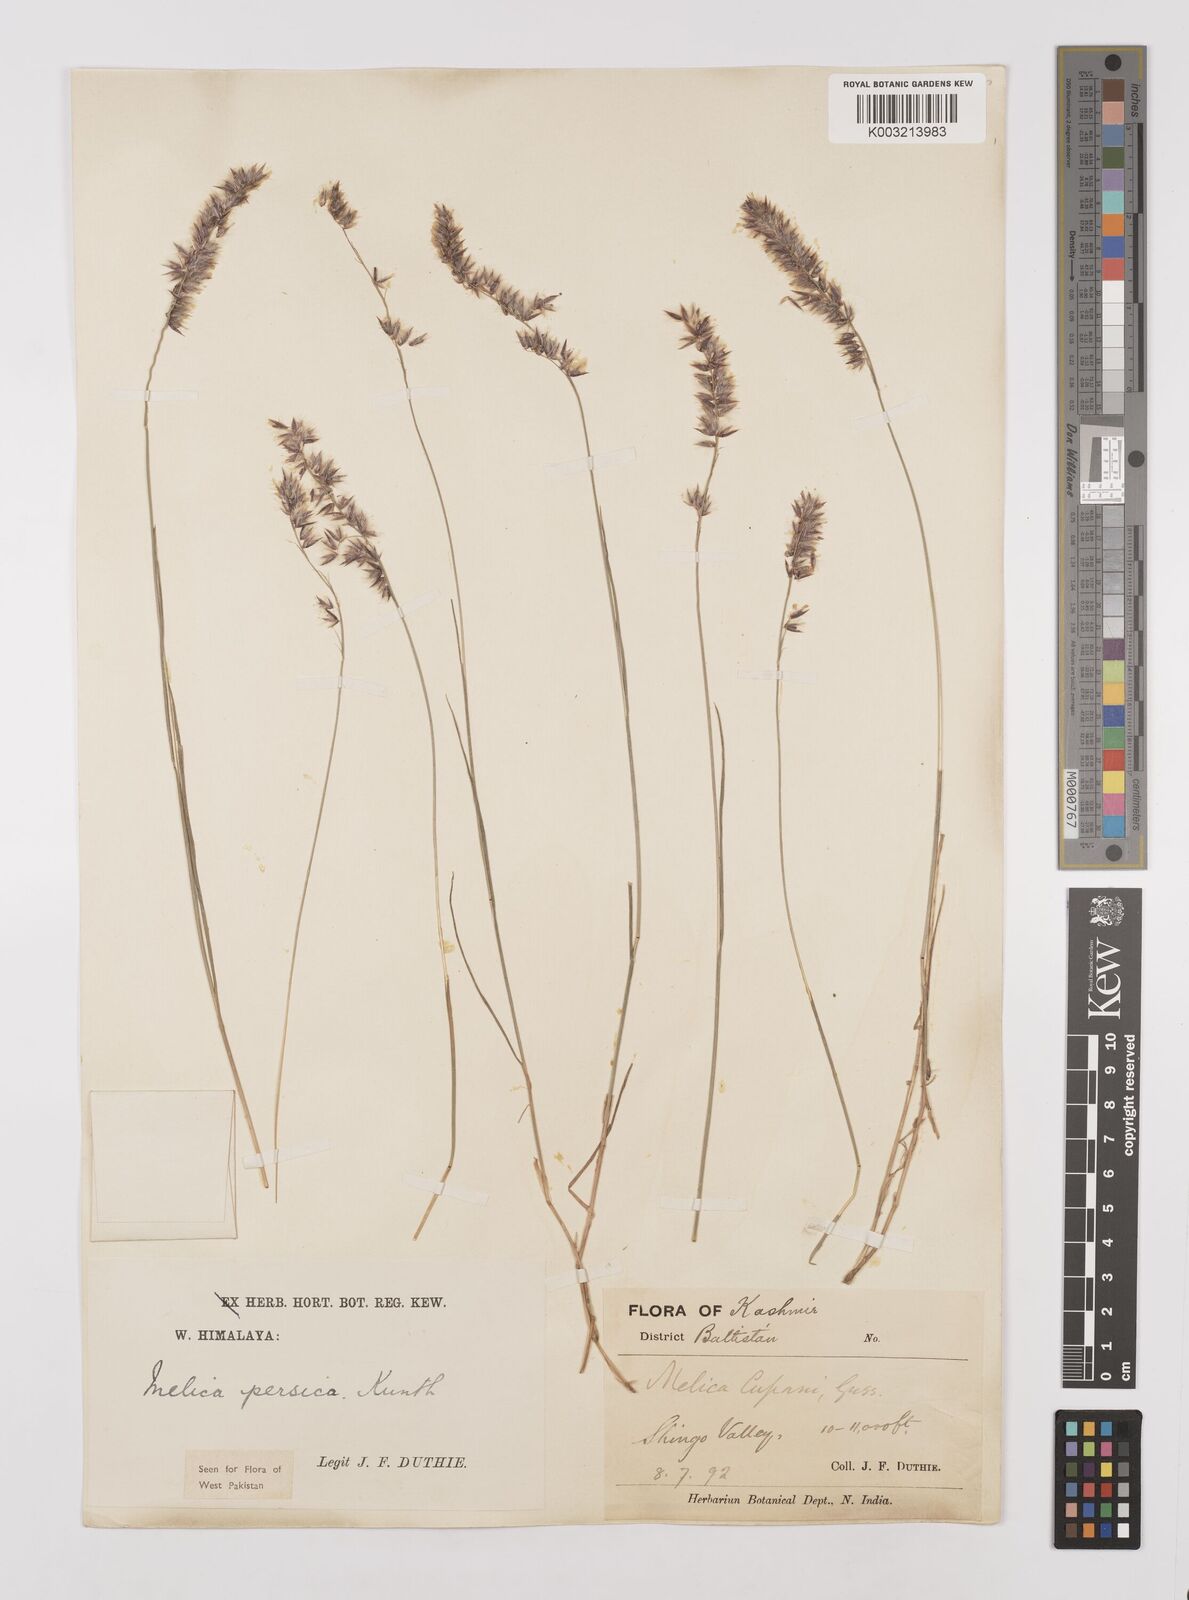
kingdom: Plantae
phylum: Tracheophyta
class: Liliopsida
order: Poales
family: Poaceae
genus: Melica
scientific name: Melica persica
